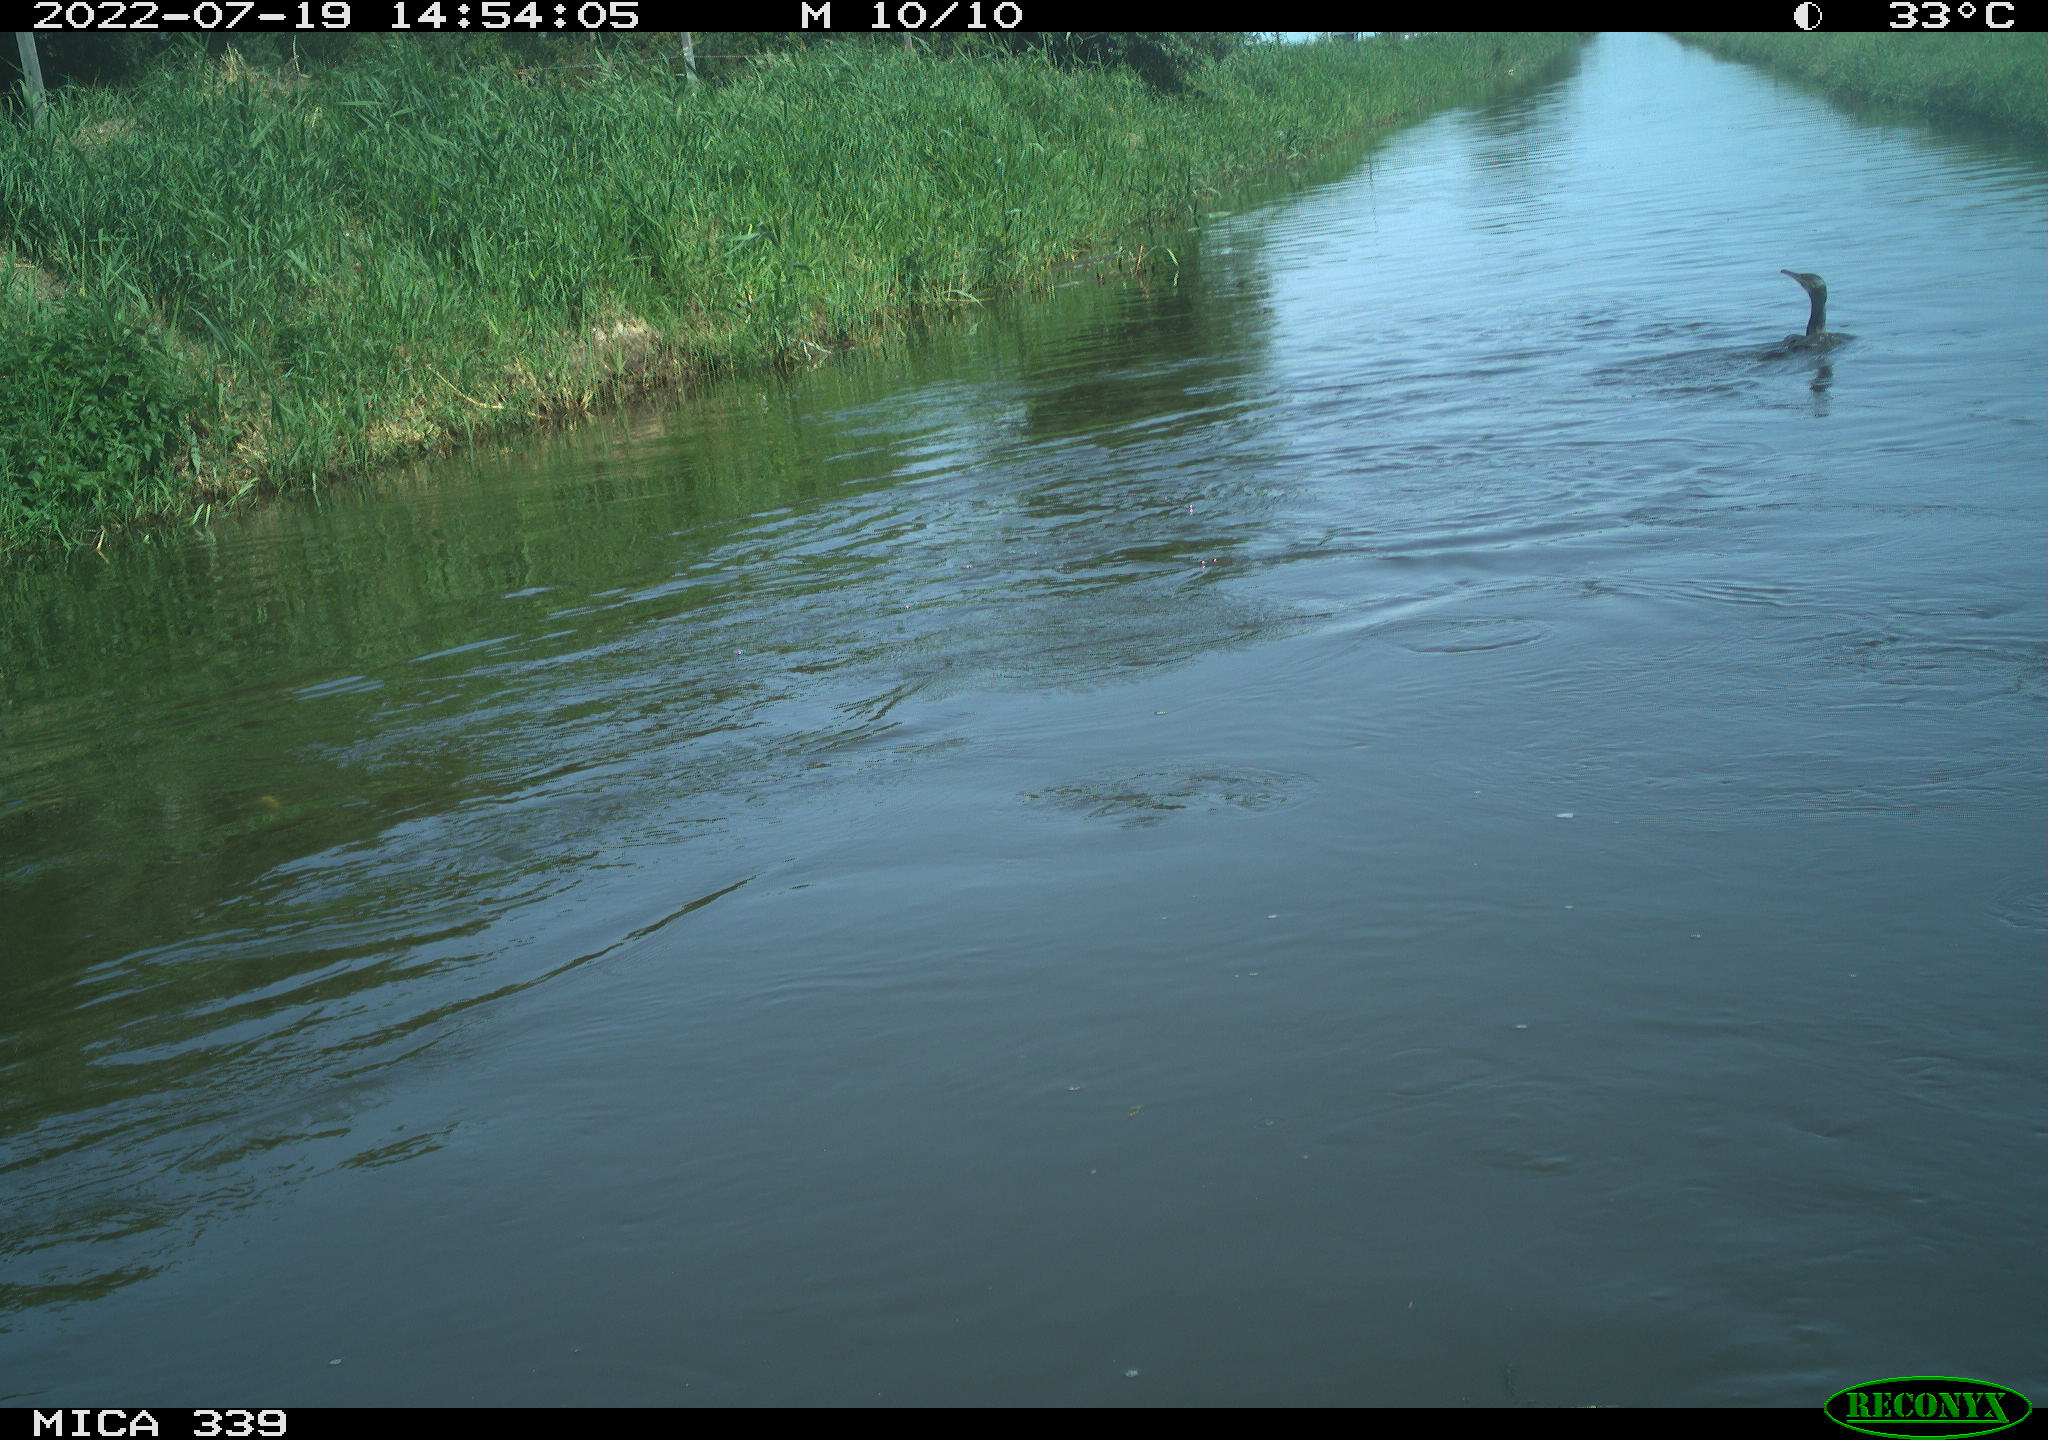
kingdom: Animalia
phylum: Chordata
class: Aves
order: Suliformes
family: Phalacrocoracidae
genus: Phalacrocorax
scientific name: Phalacrocorax carbo
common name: Great cormorant
